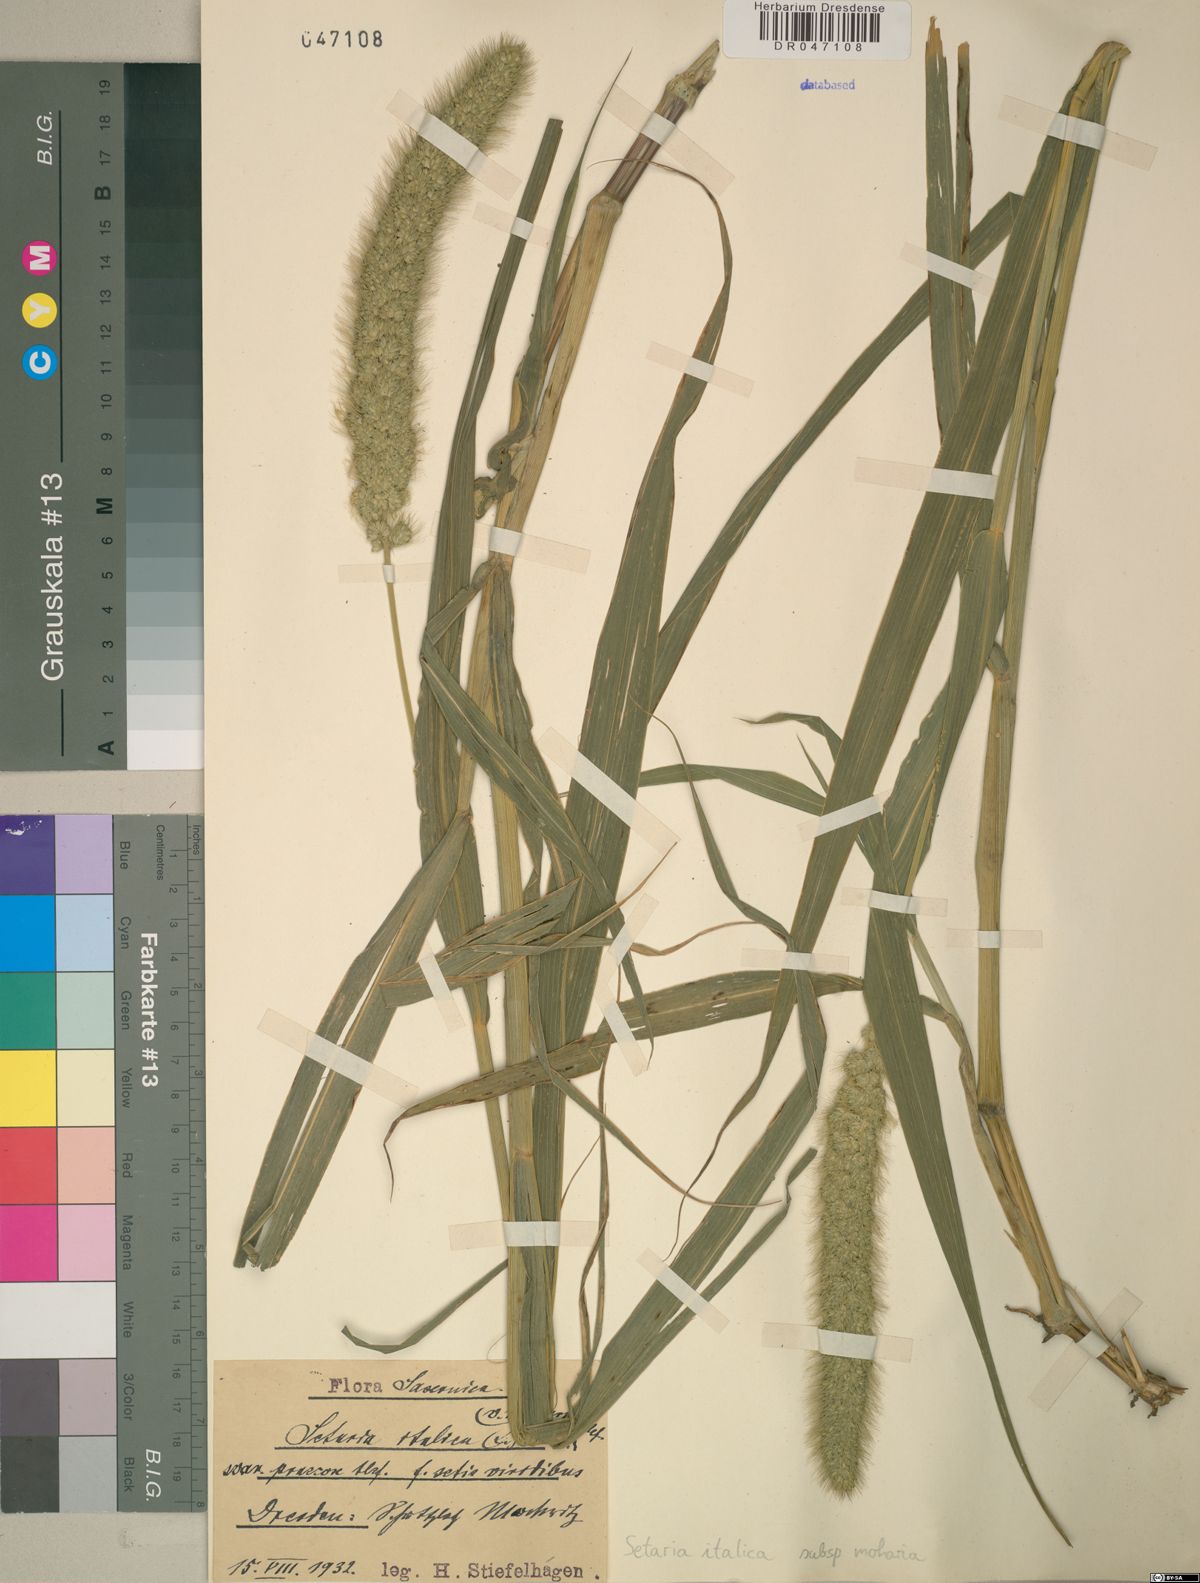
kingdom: Plantae
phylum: Tracheophyta
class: Liliopsida
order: Poales
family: Poaceae
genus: Setaria
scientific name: Setaria italica
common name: Foxtail bristle-grass
